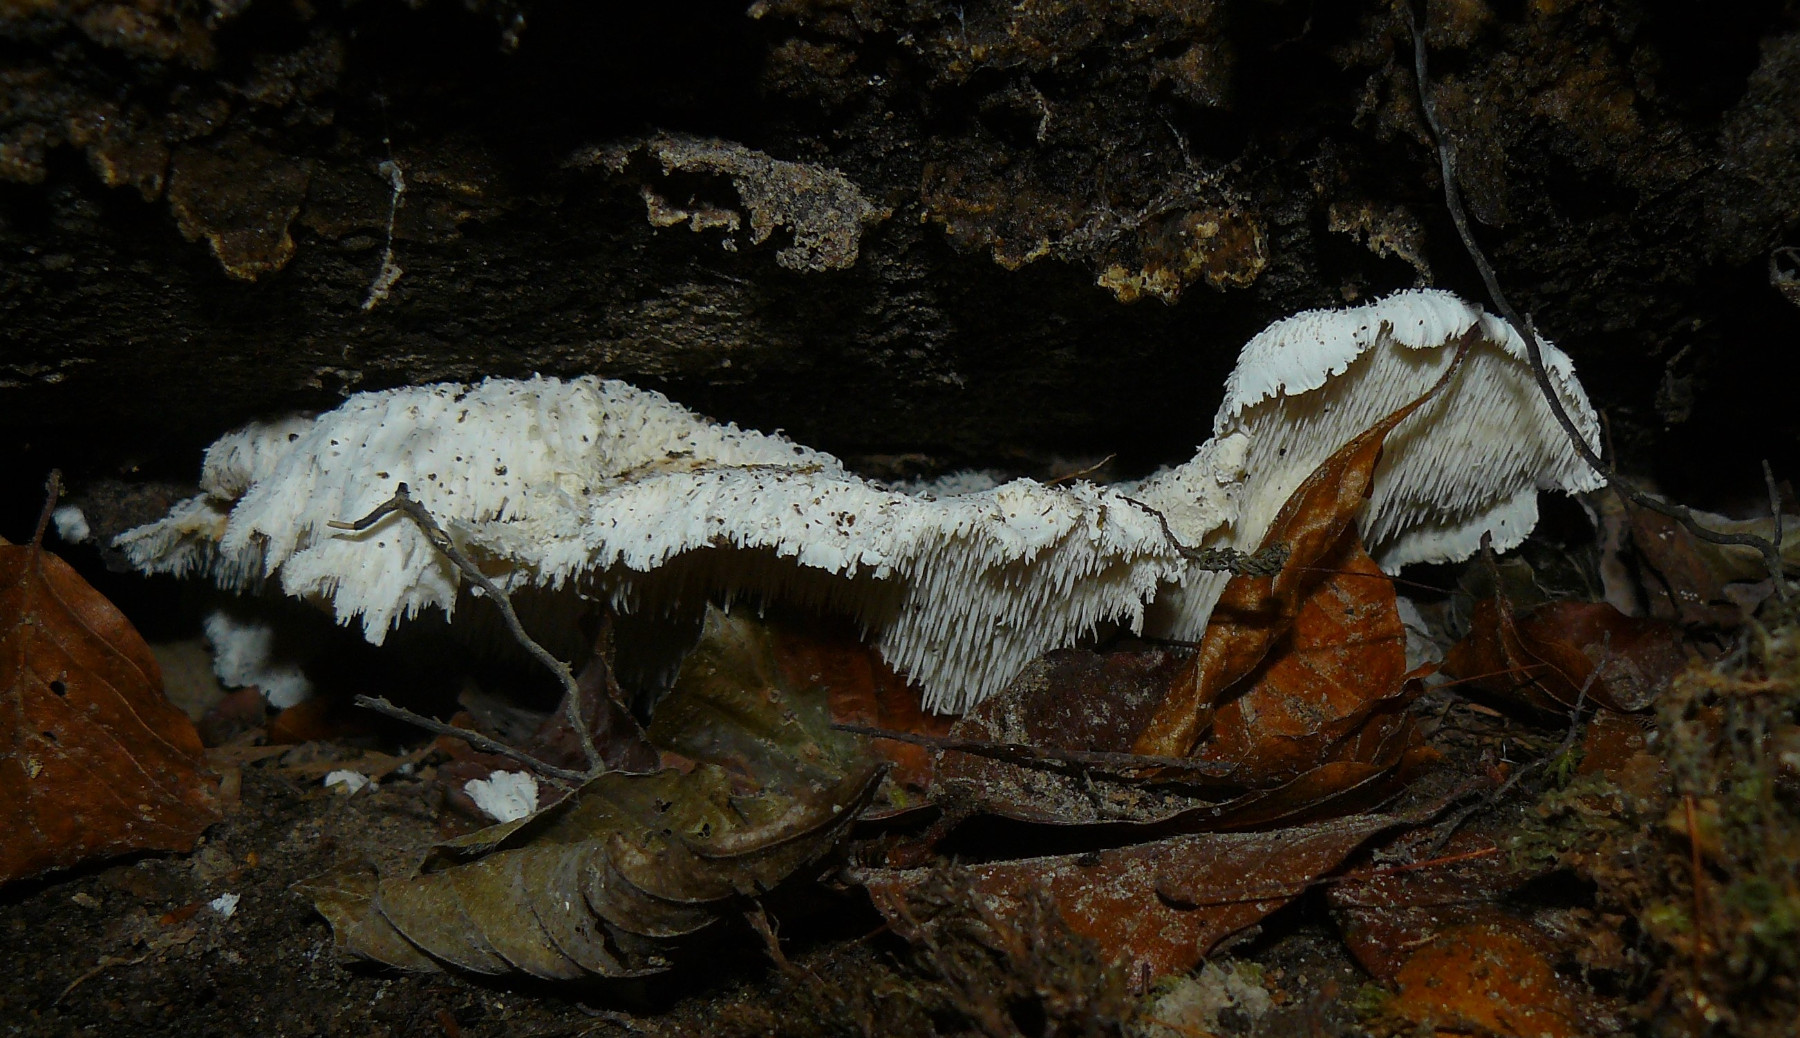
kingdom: Fungi
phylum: Basidiomycota
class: Agaricomycetes
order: Russulales
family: Hericiaceae
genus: Hericium
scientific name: Hericium cirrhatum
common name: børstepigsvamp
